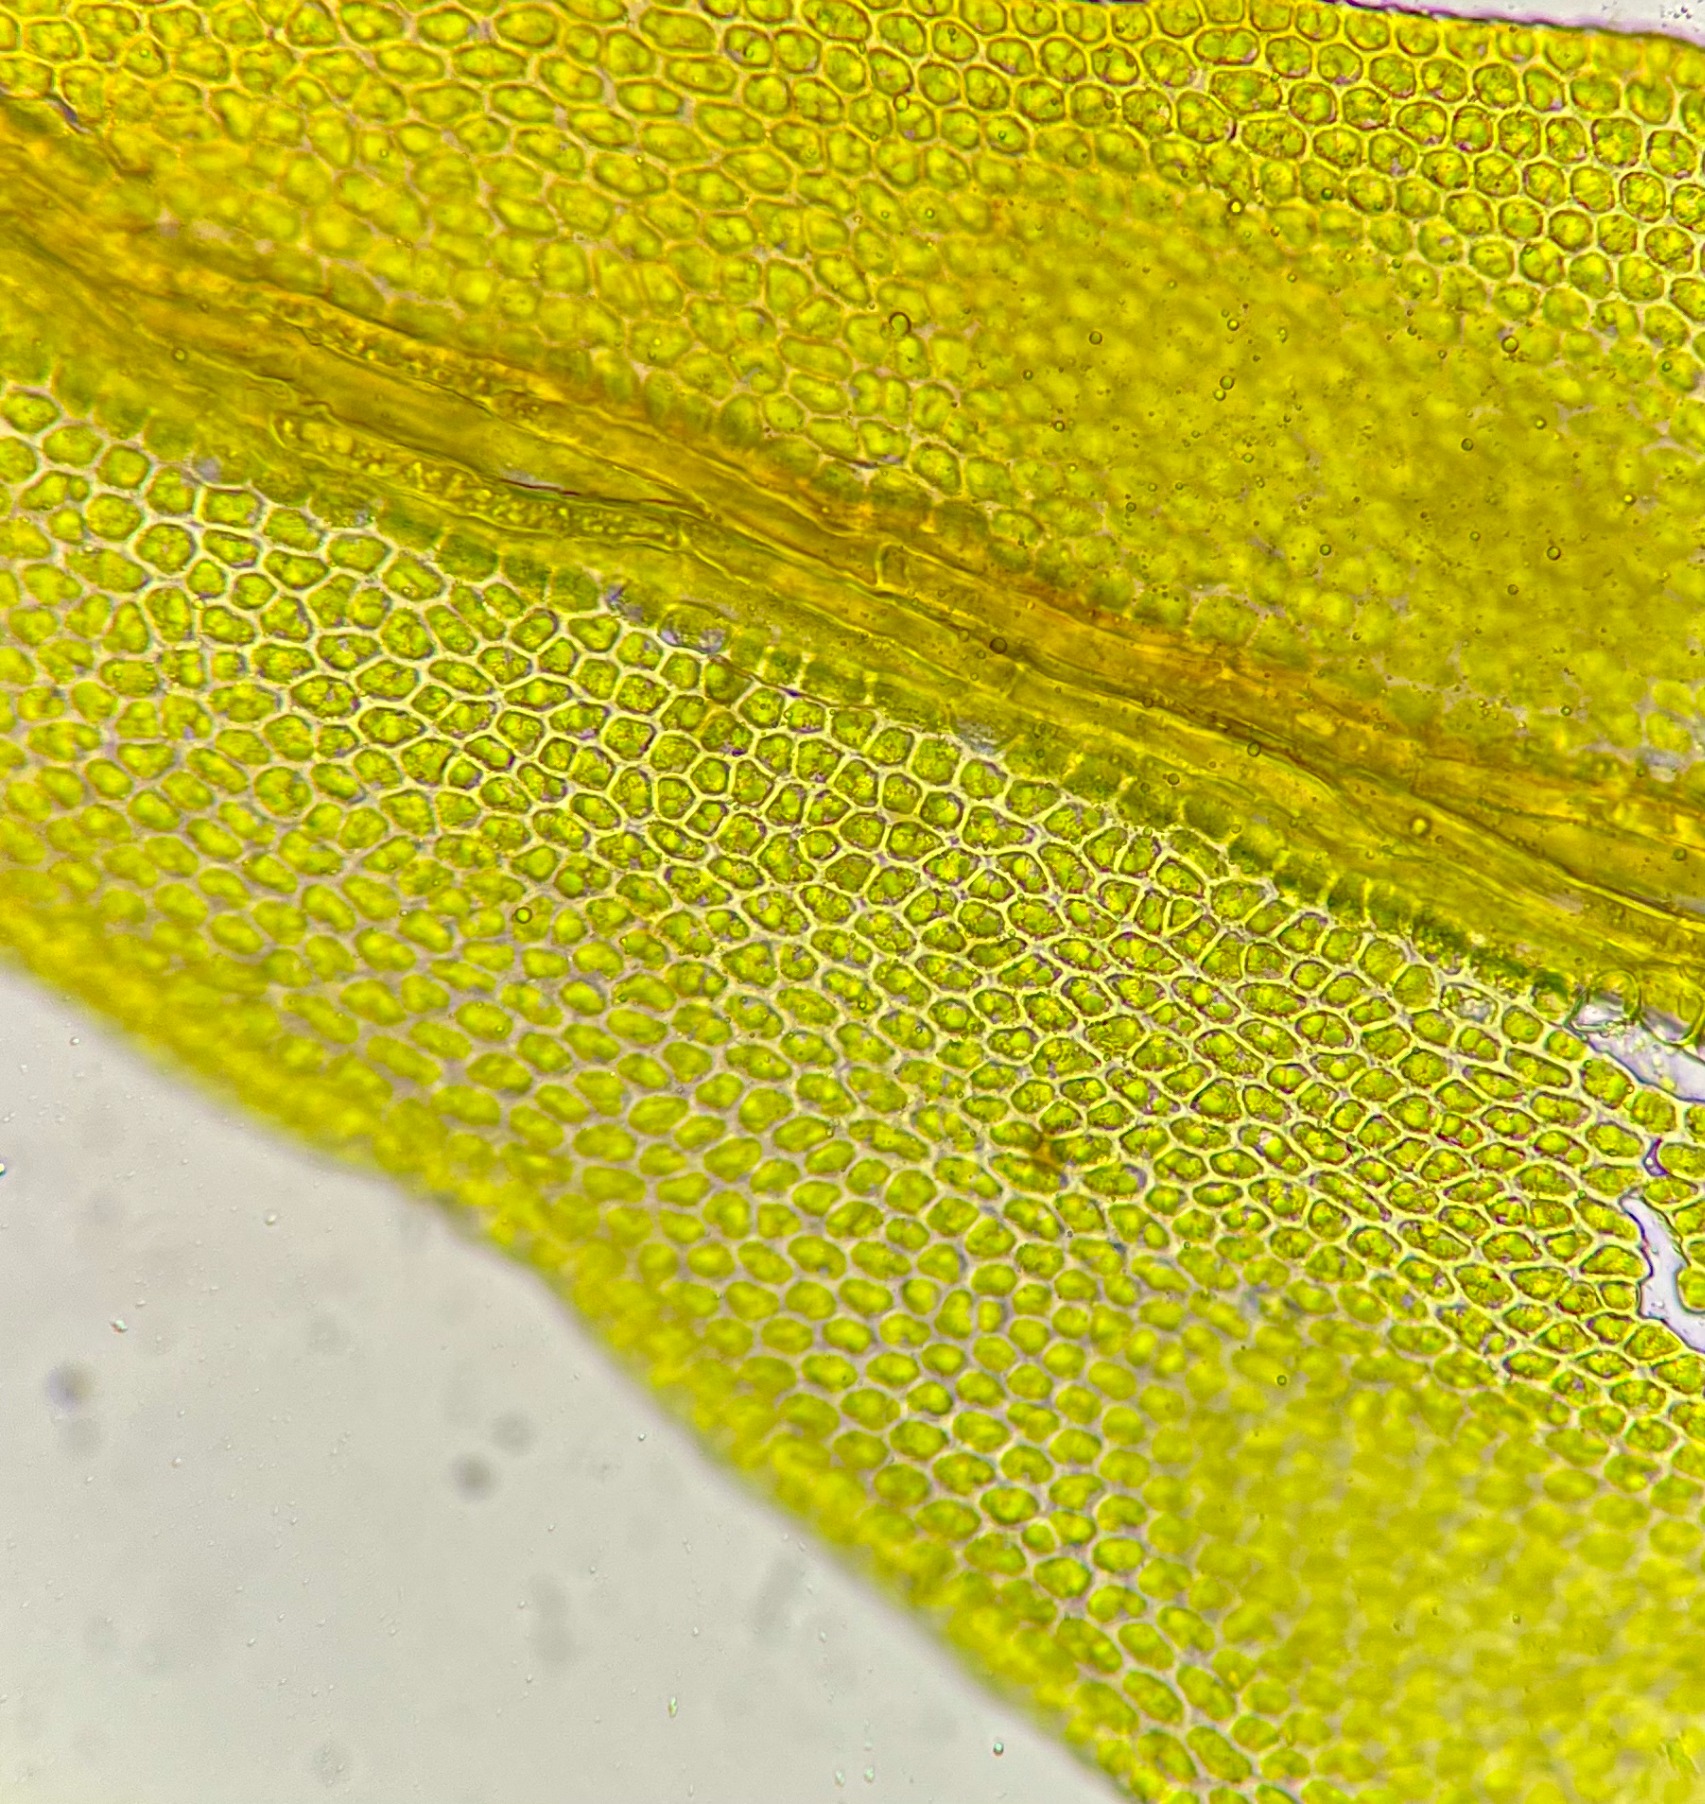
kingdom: Plantae
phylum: Bryophyta
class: Bryopsida
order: Hypnales
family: Leskeaceae
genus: Leskea
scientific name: Leskea polycarpa
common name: Mat lærkemos
